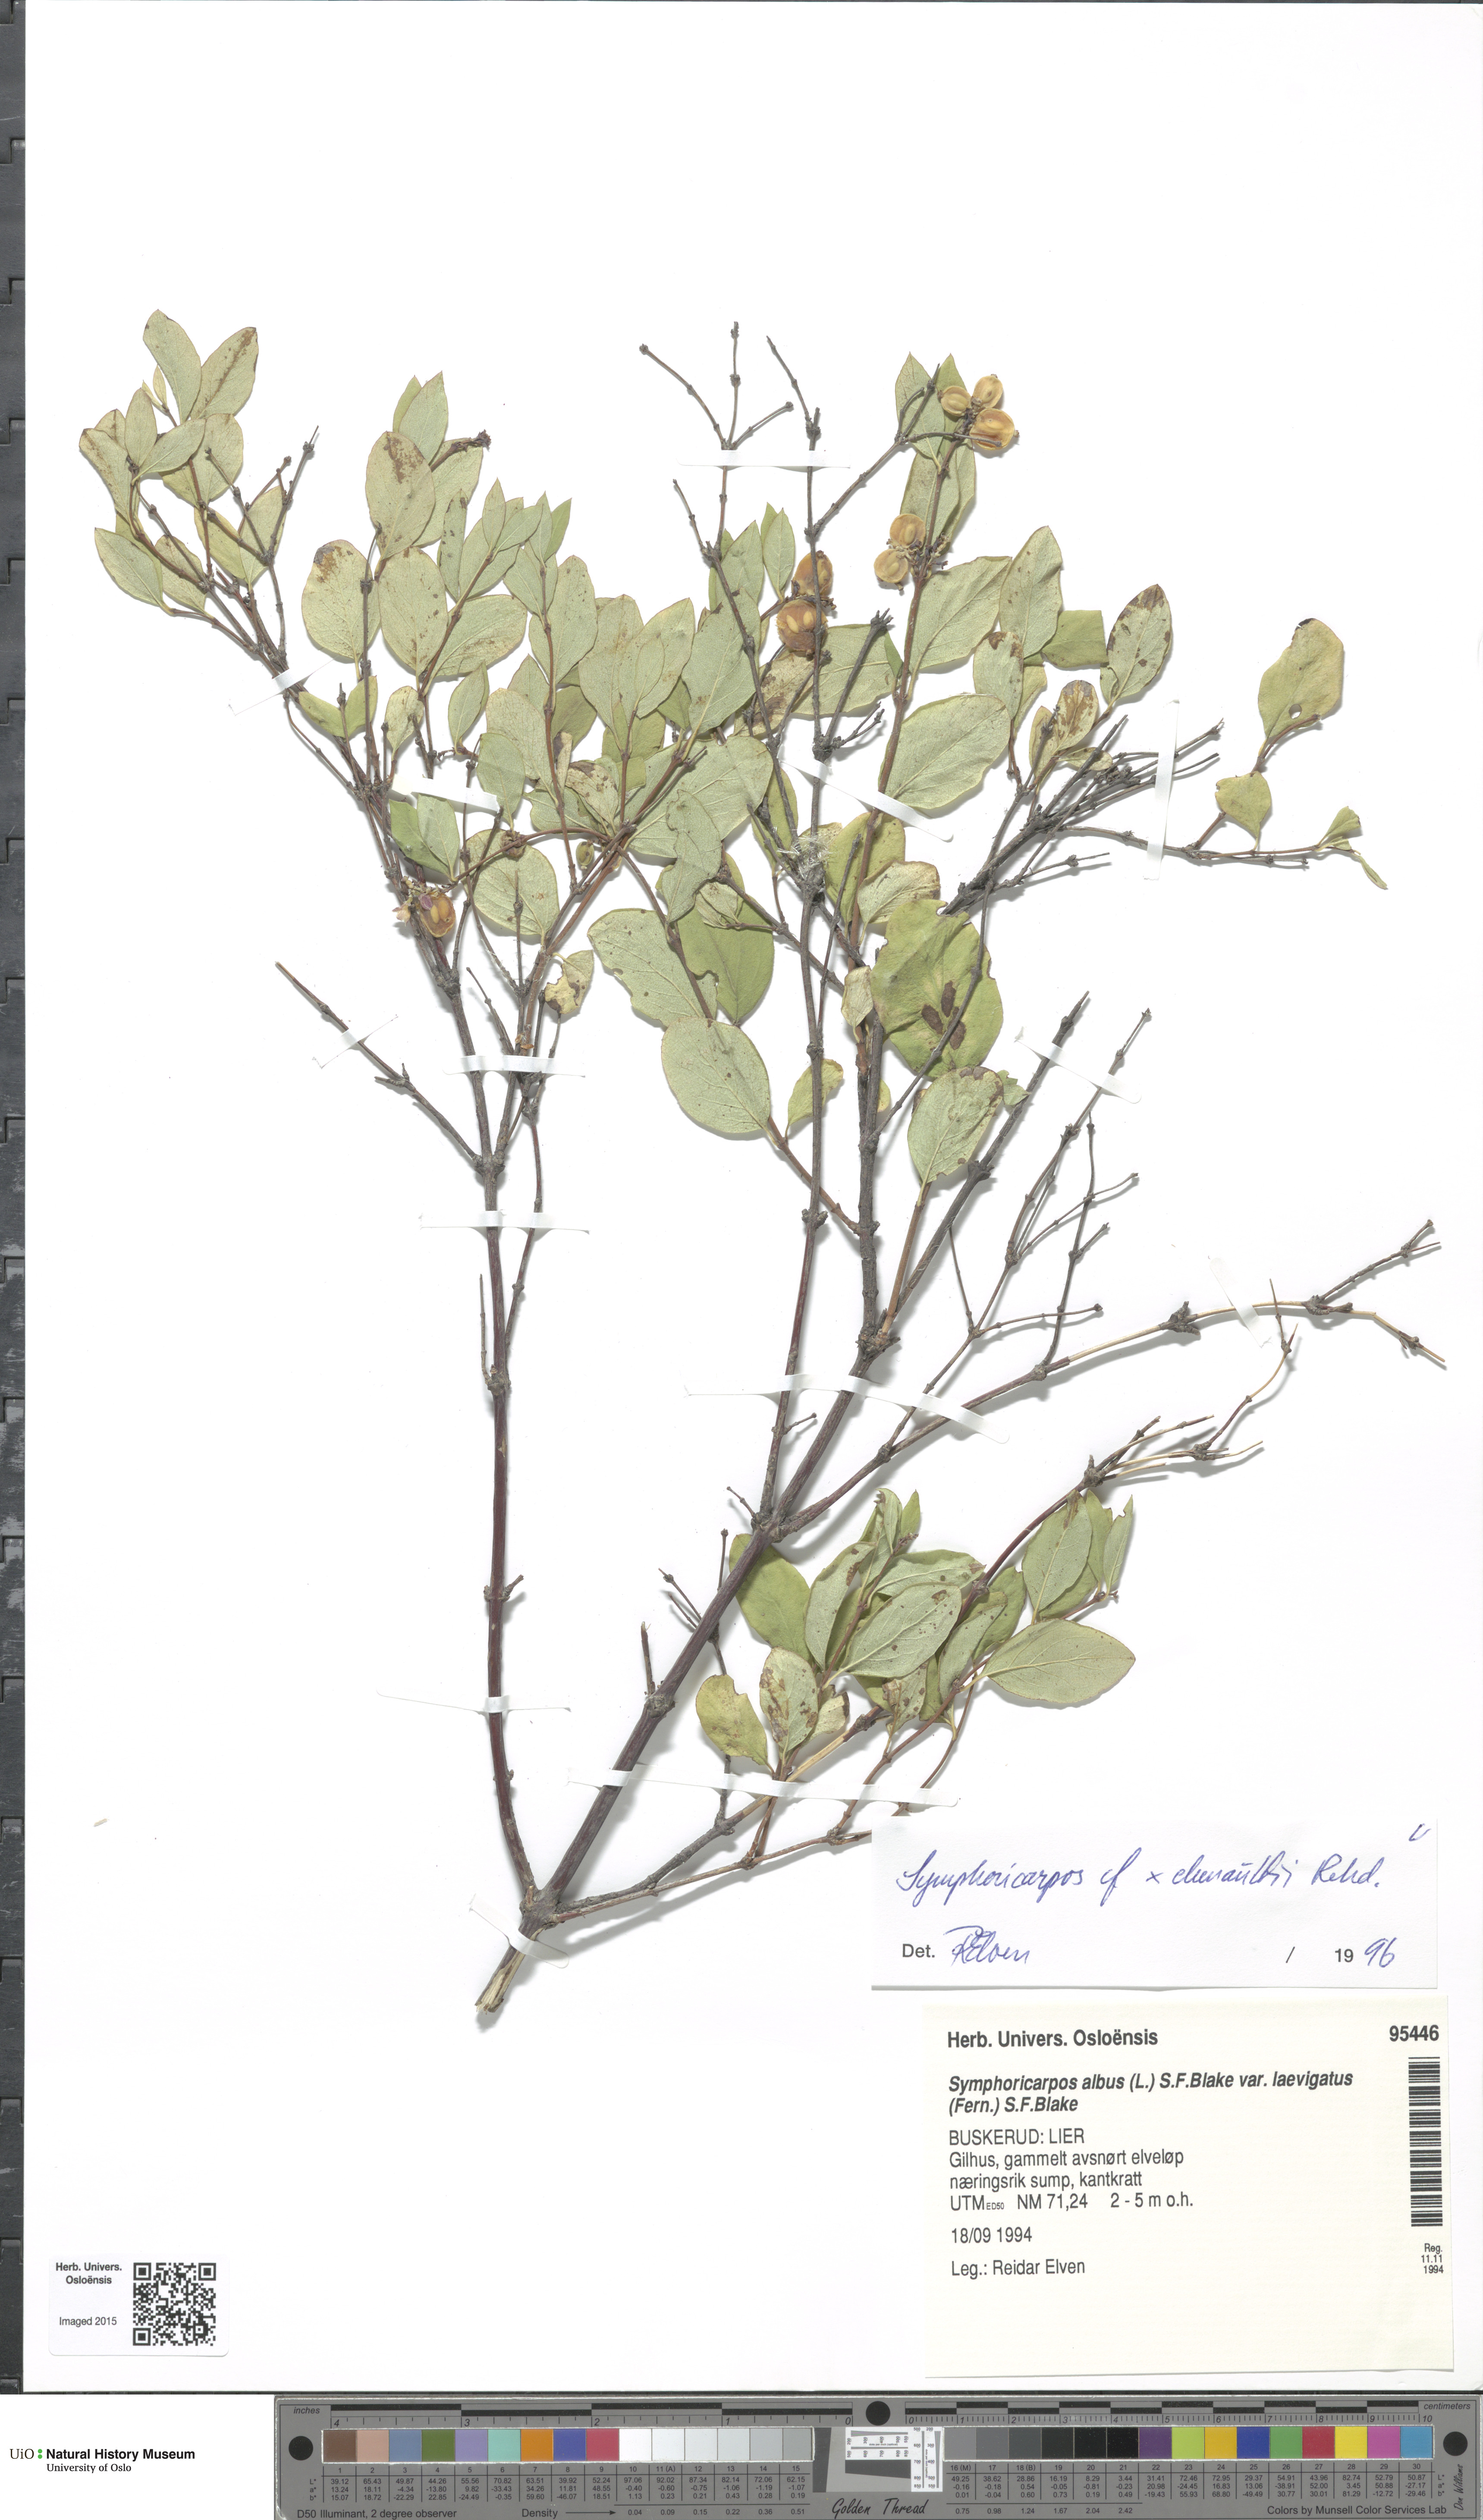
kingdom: Plantae
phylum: Tracheophyta
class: Magnoliopsida
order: Dipsacales
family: Caprifoliaceae
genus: Symphoricarpos
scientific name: Symphoricarpos albus
